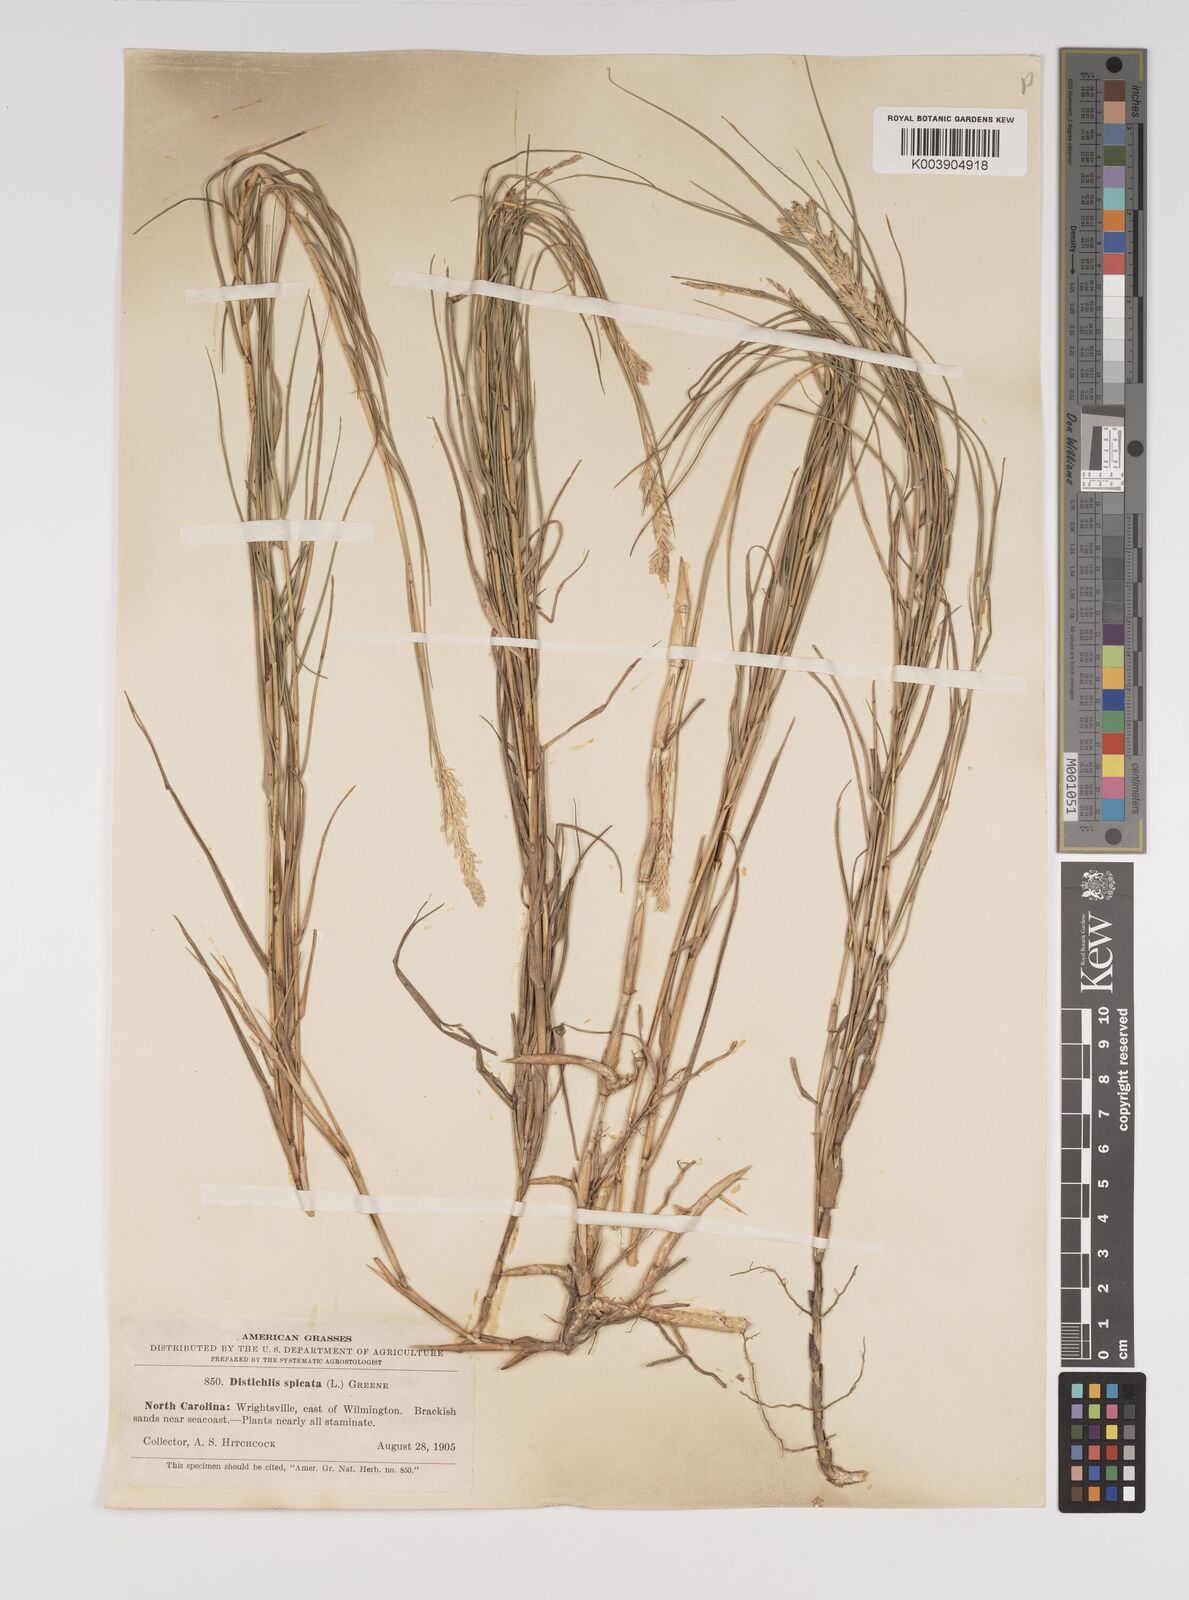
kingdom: Plantae
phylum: Tracheophyta
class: Liliopsida
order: Poales
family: Poaceae
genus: Distichlis
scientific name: Distichlis spicata
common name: Saltgrass
